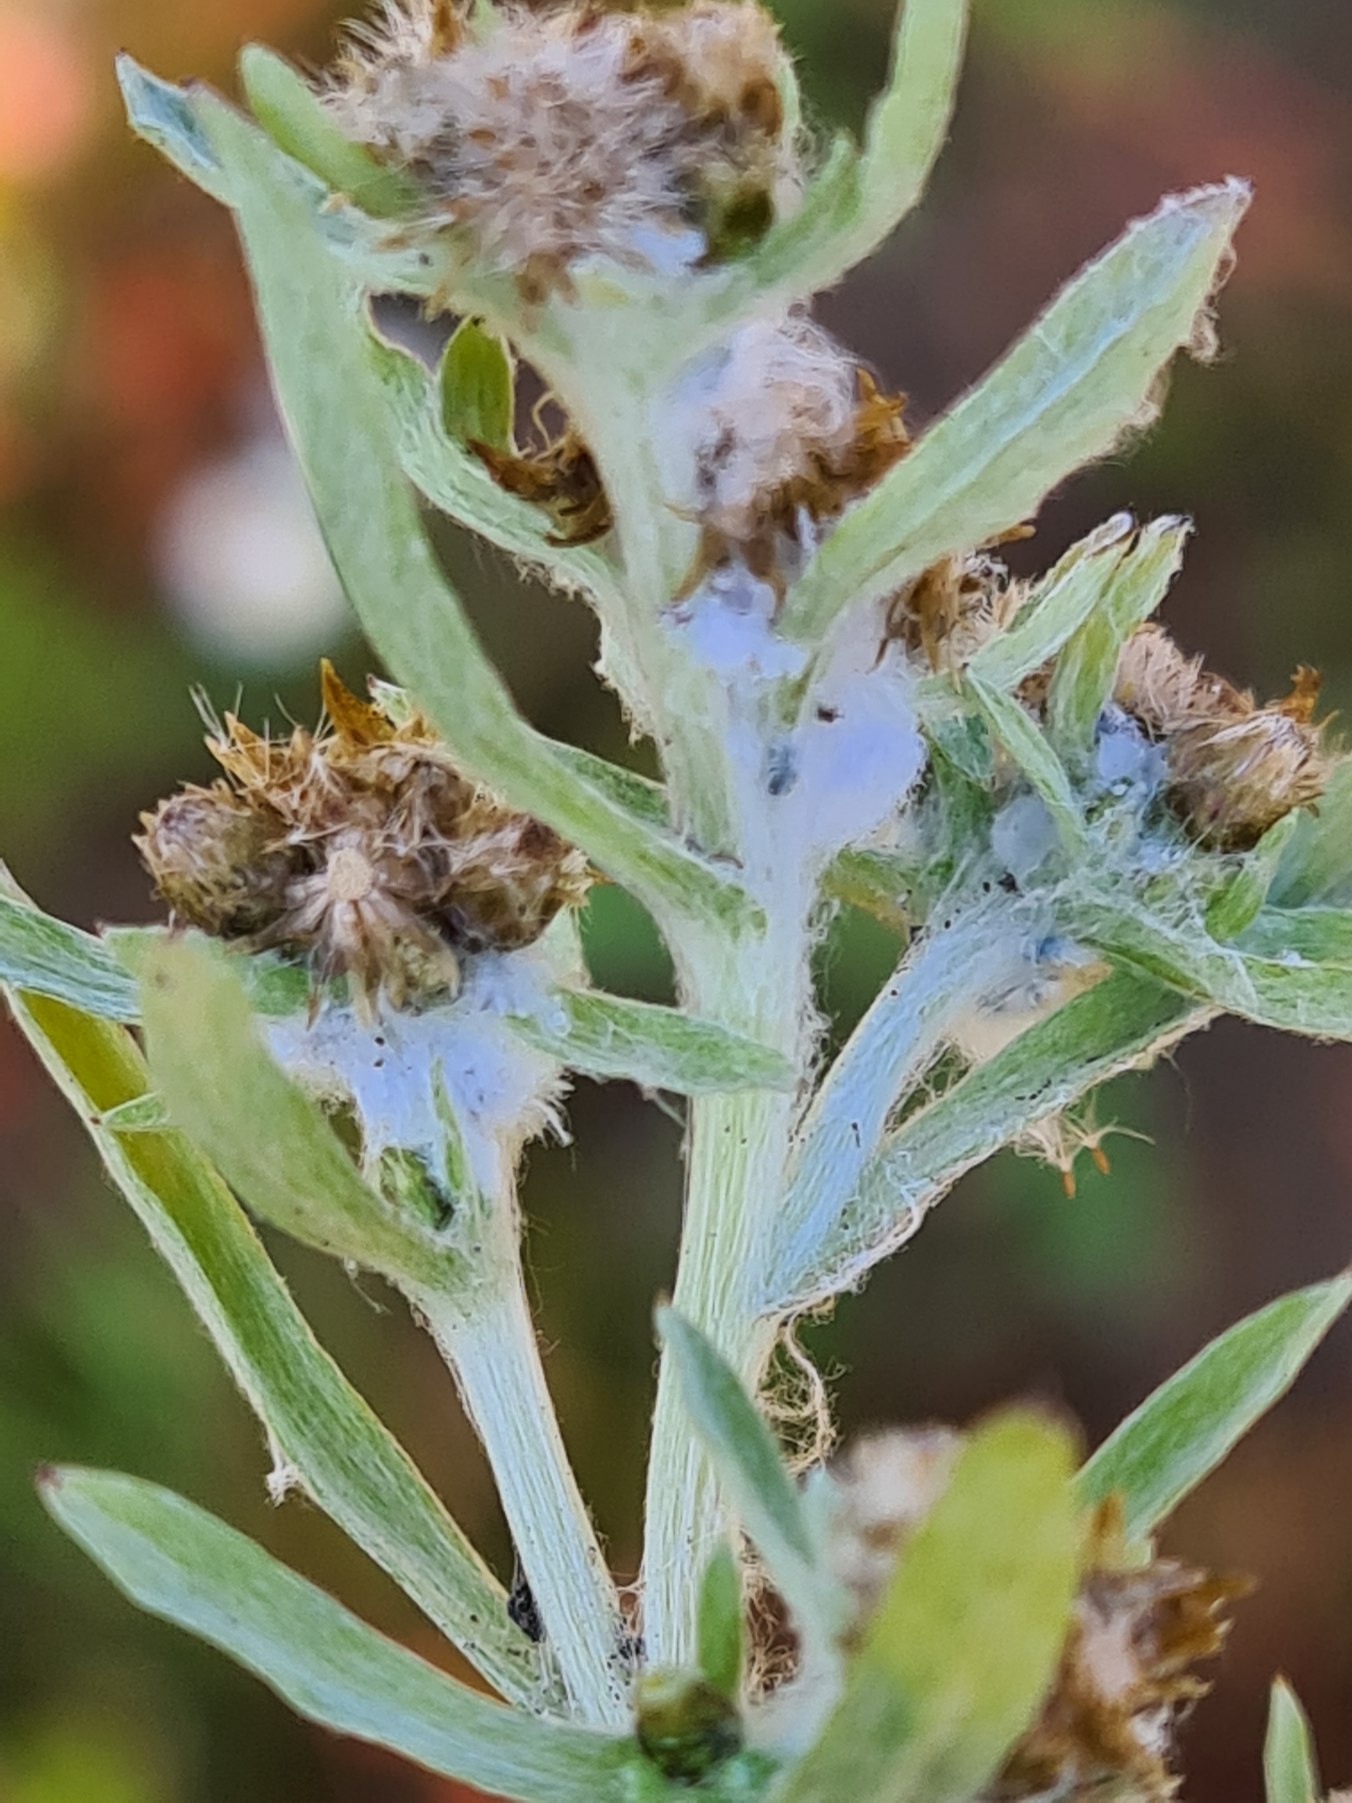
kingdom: Plantae
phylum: Tracheophyta
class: Magnoliopsida
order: Asterales
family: Asteraceae
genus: Gnaphalium
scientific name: Gnaphalium uliginosum
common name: Sump-evighedsblomst
